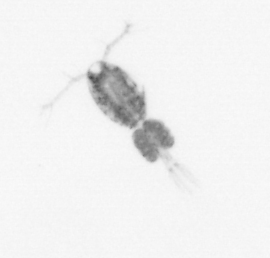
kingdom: Animalia
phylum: Arthropoda
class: Copepoda
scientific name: Copepoda
